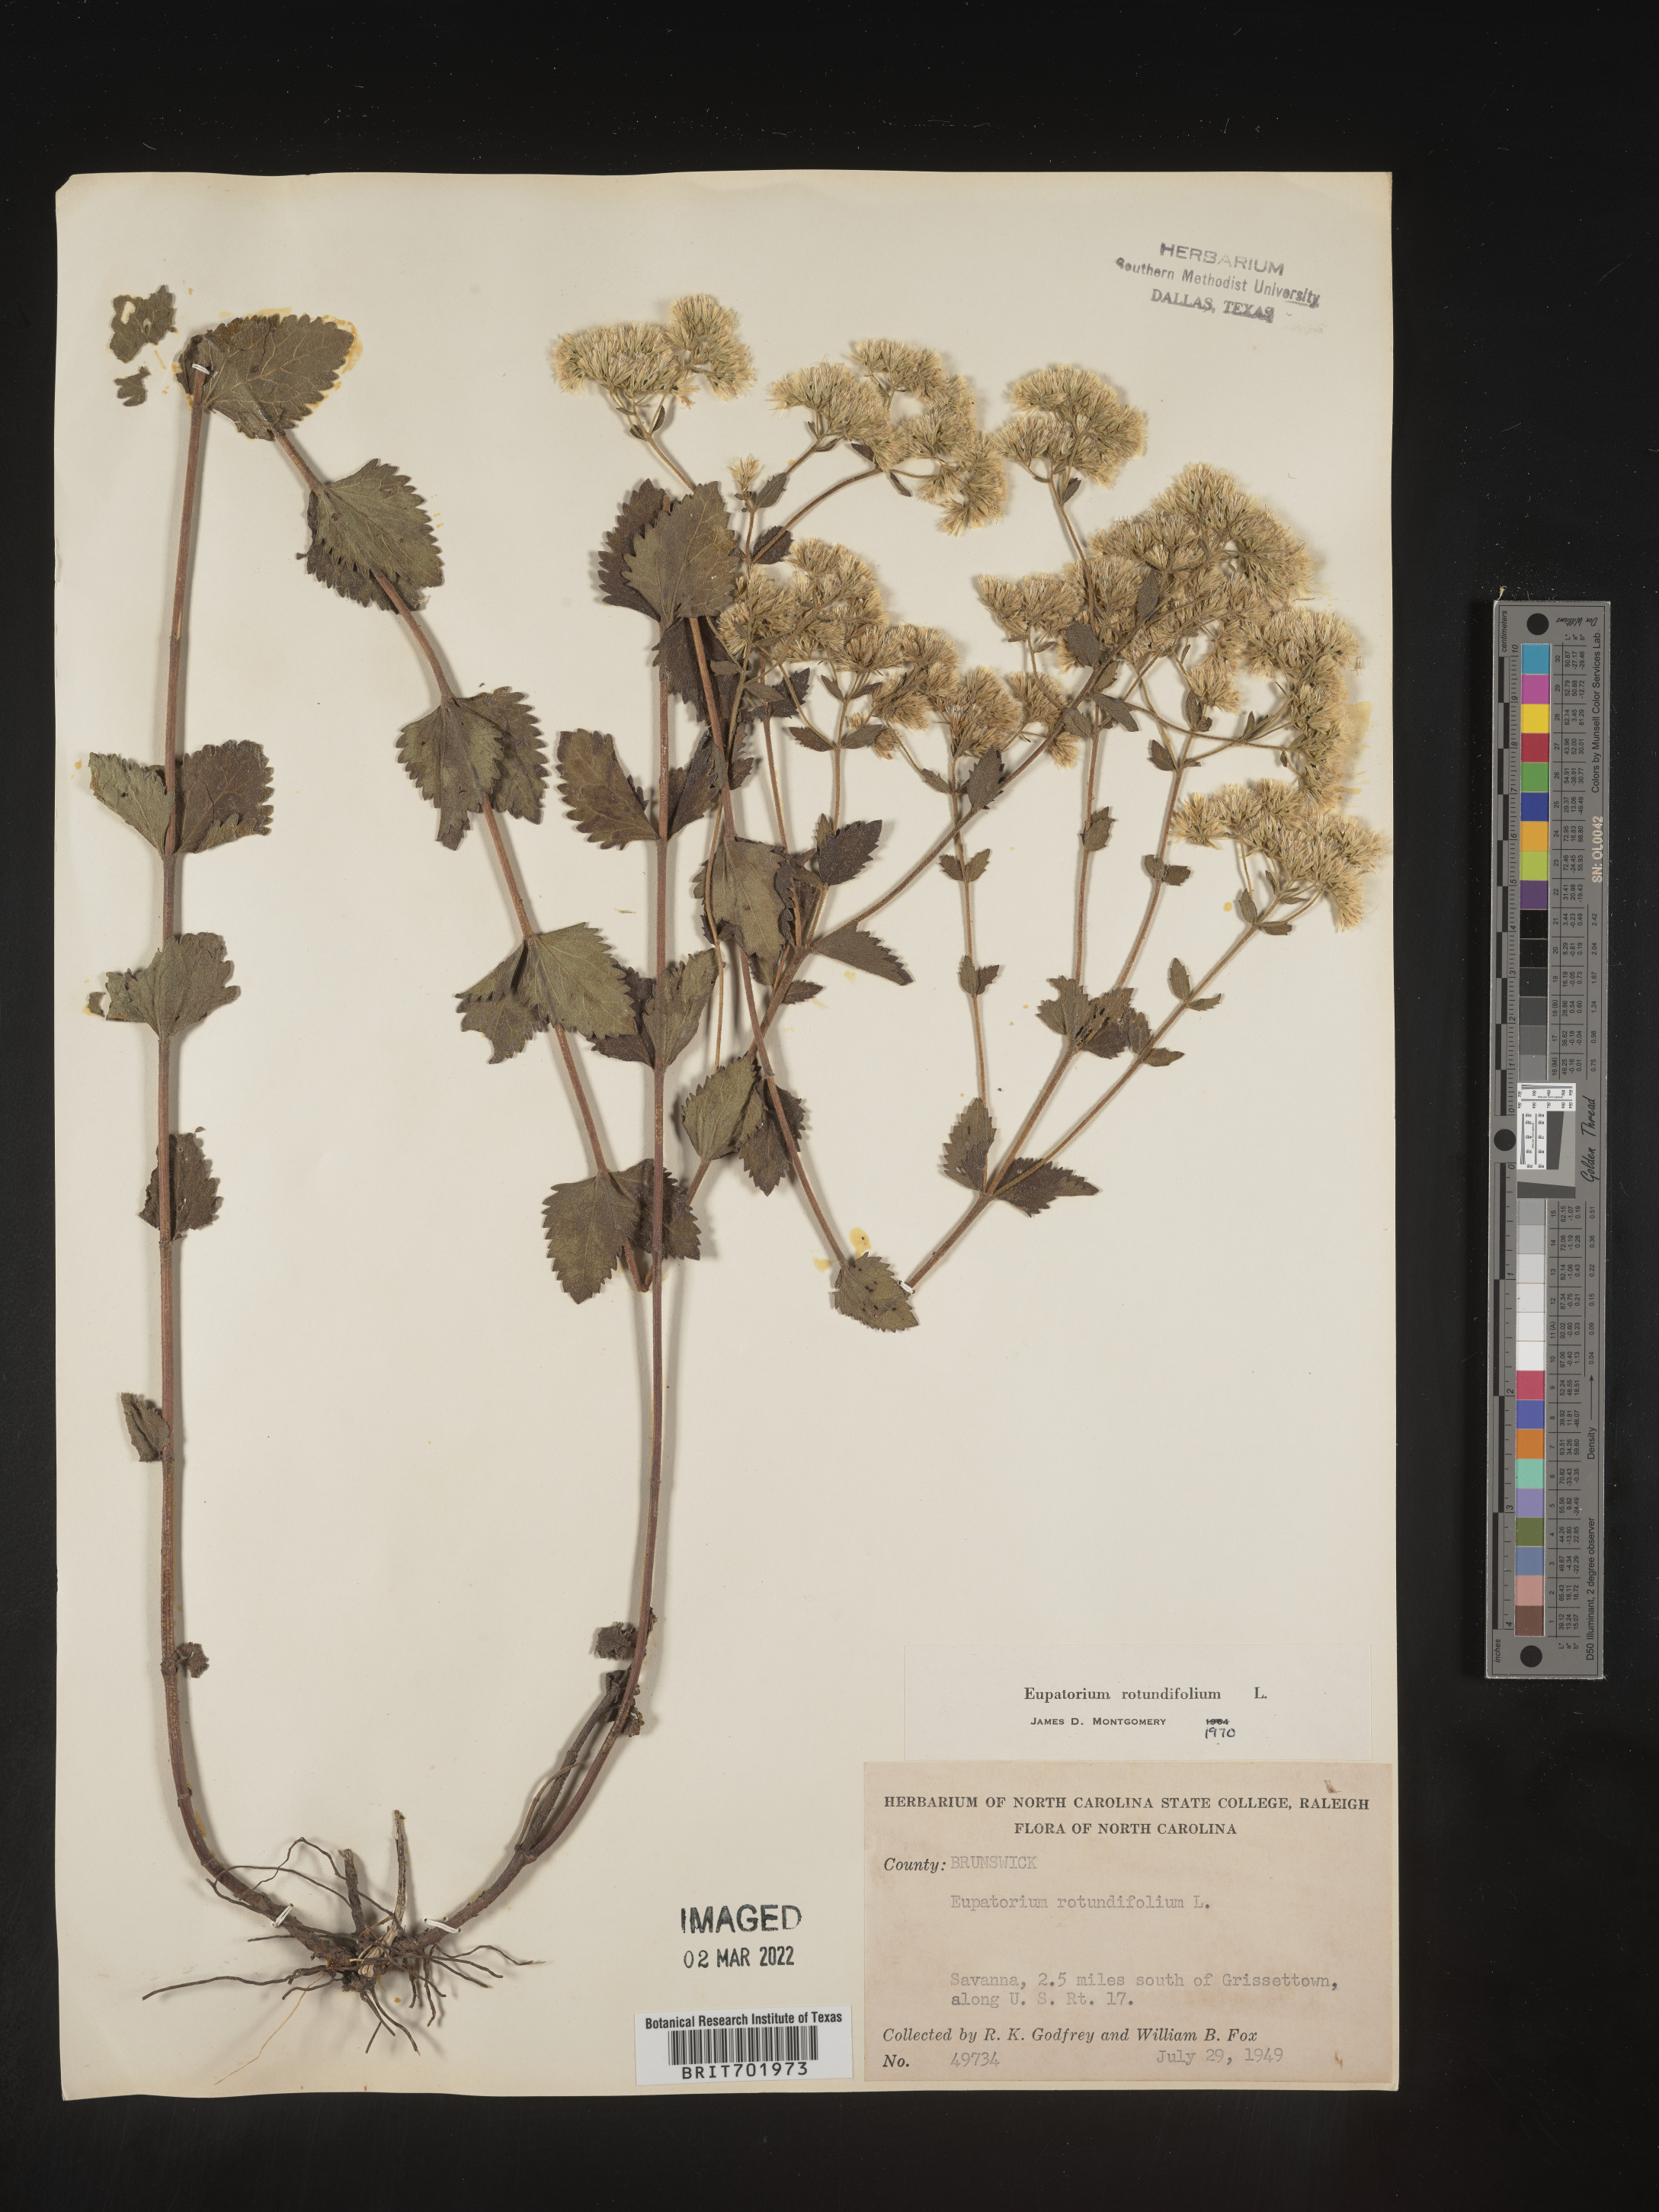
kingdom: Plantae
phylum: Tracheophyta
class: Magnoliopsida
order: Asterales
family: Asteraceae
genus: Eupatorium
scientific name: Eupatorium rotundifolium
